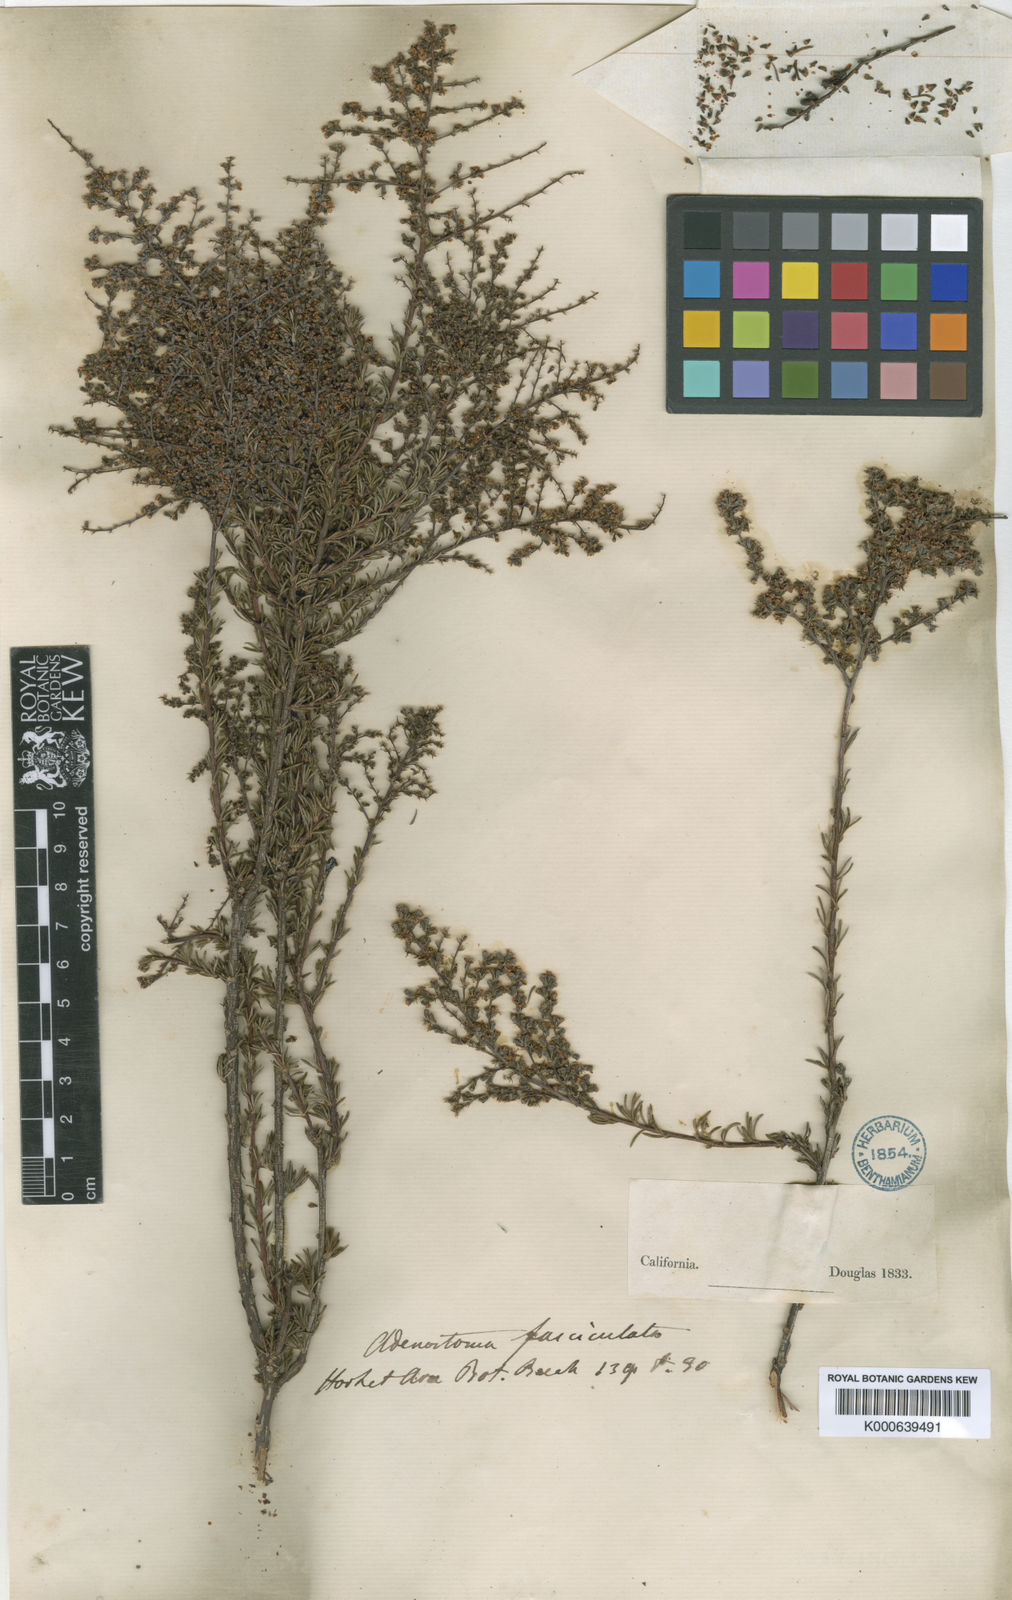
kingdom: Plantae
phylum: Tracheophyta
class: Magnoliopsida
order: Rosales
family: Rosaceae
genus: Adenostoma
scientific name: Adenostoma fasciculatum
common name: Chamise
